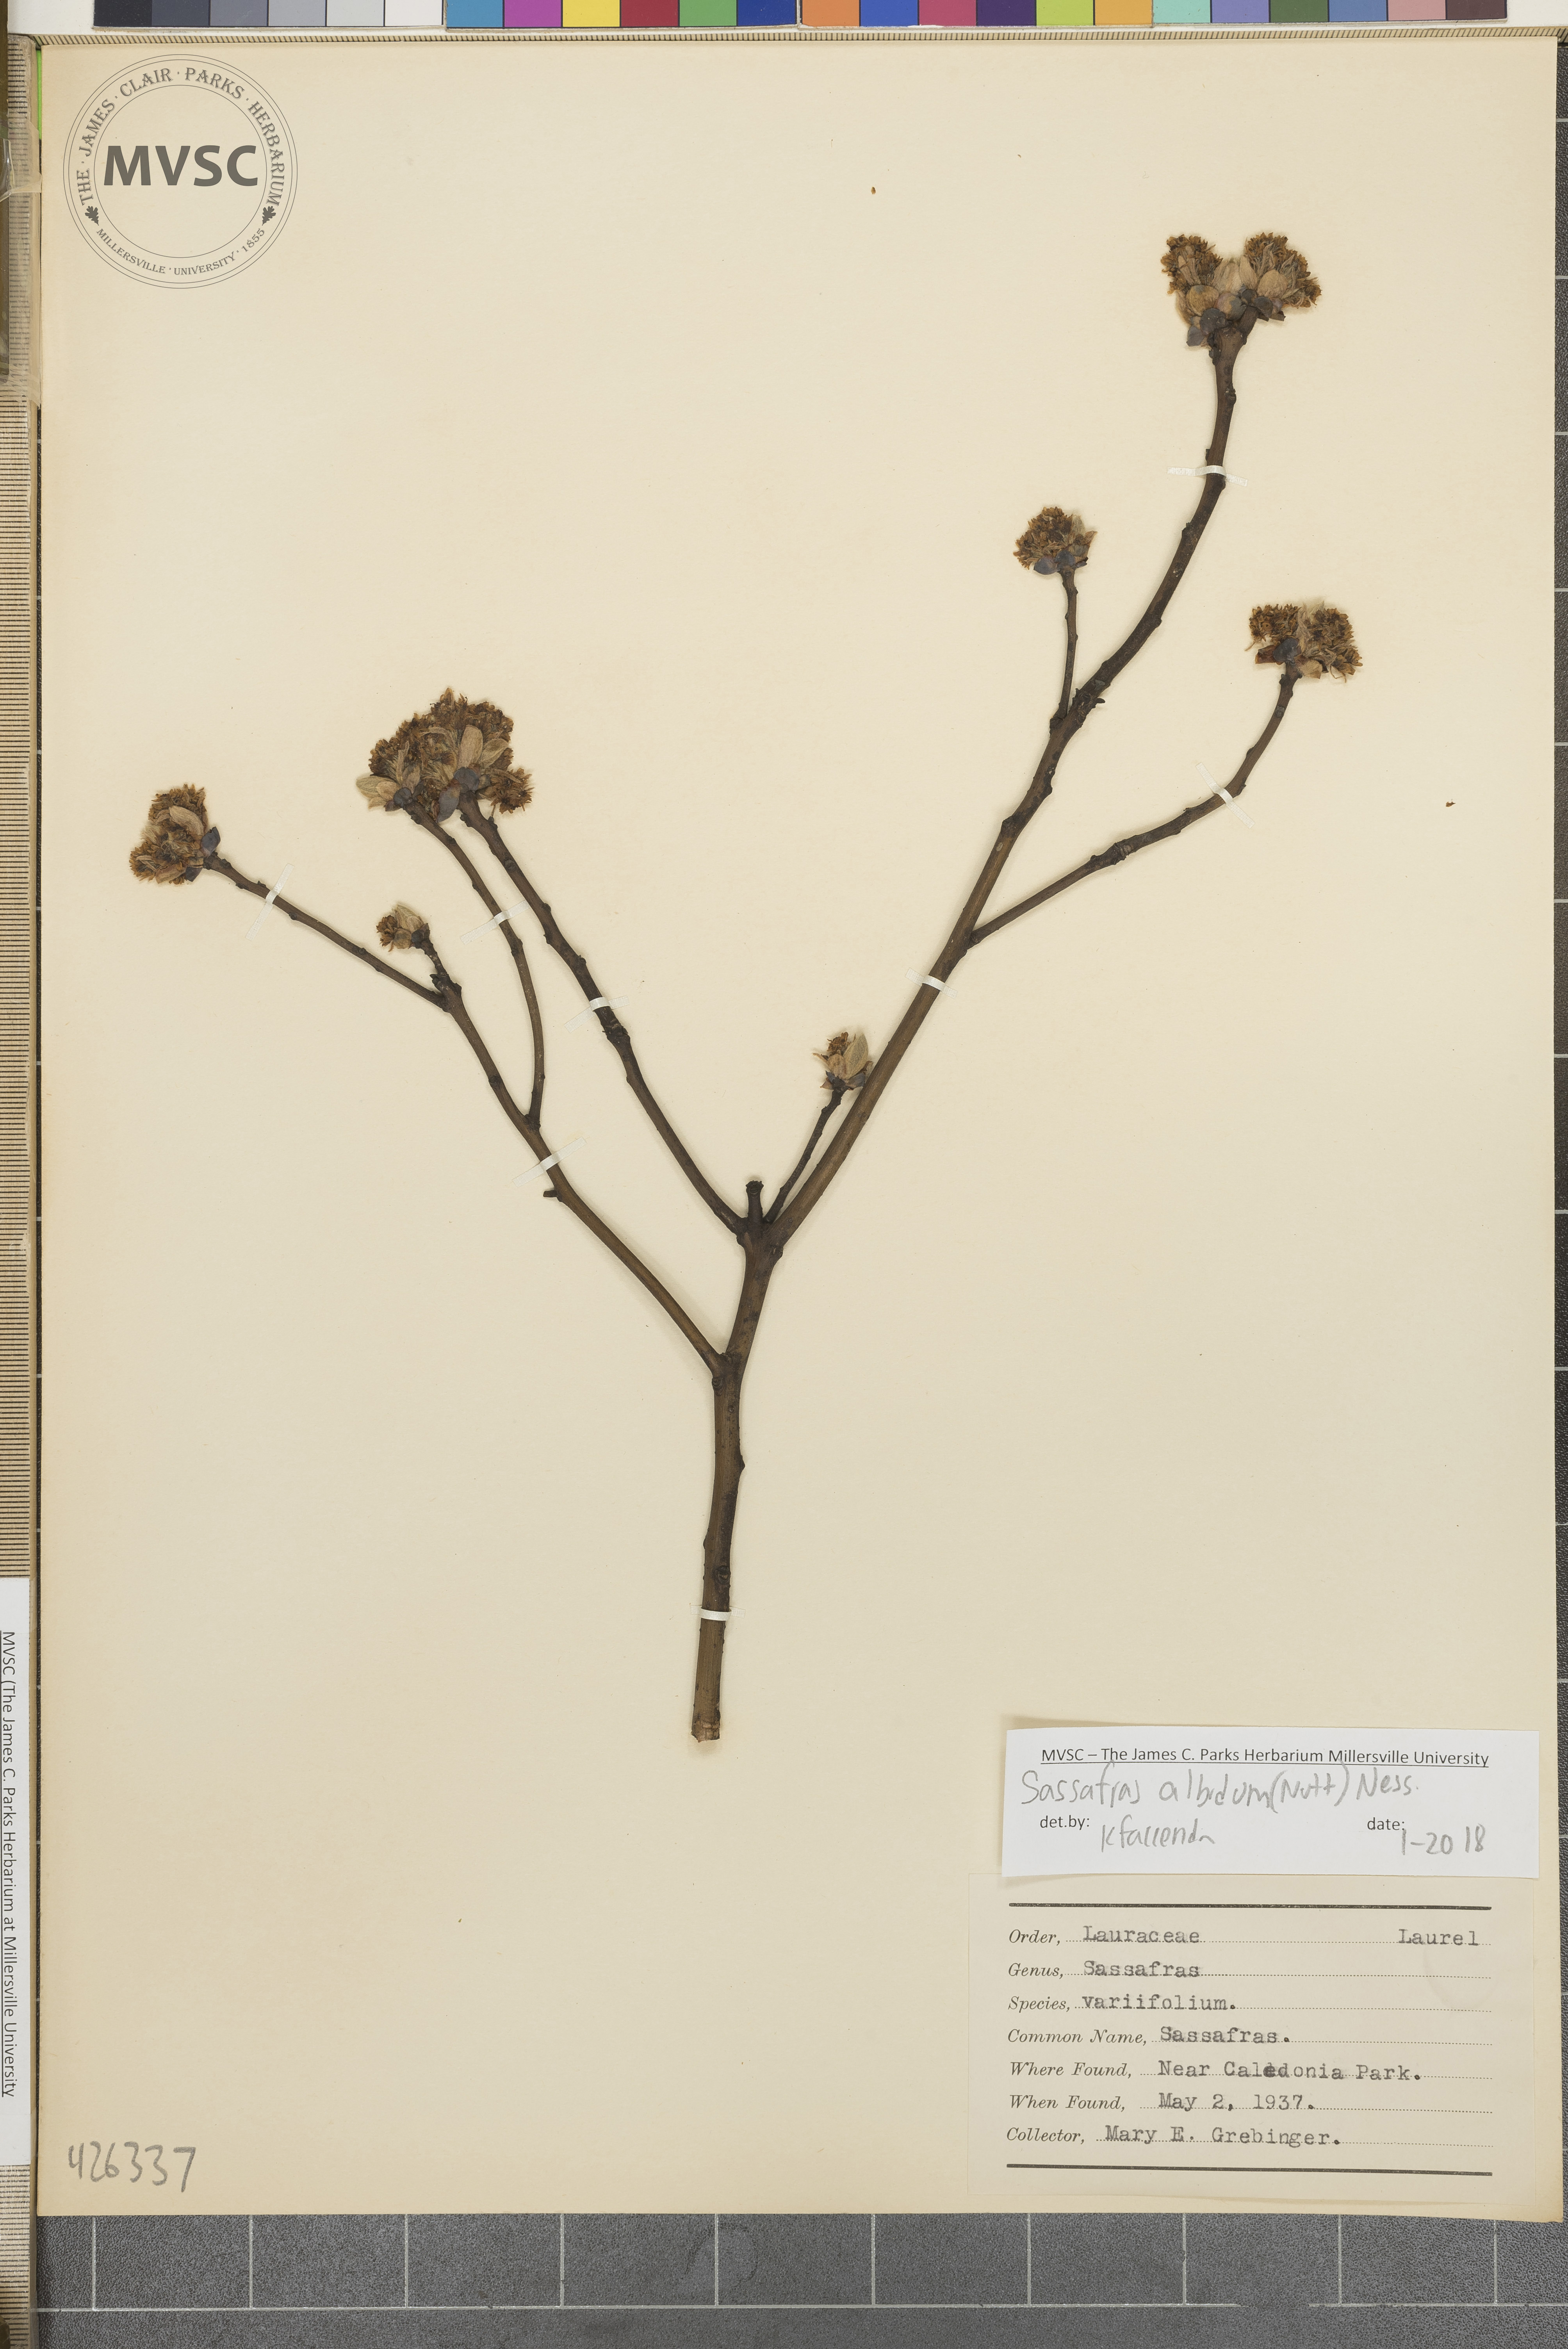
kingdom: Plantae
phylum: Tracheophyta
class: Magnoliopsida
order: Laurales
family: Lauraceae
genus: Sassafras
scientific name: Sassafras albidum
